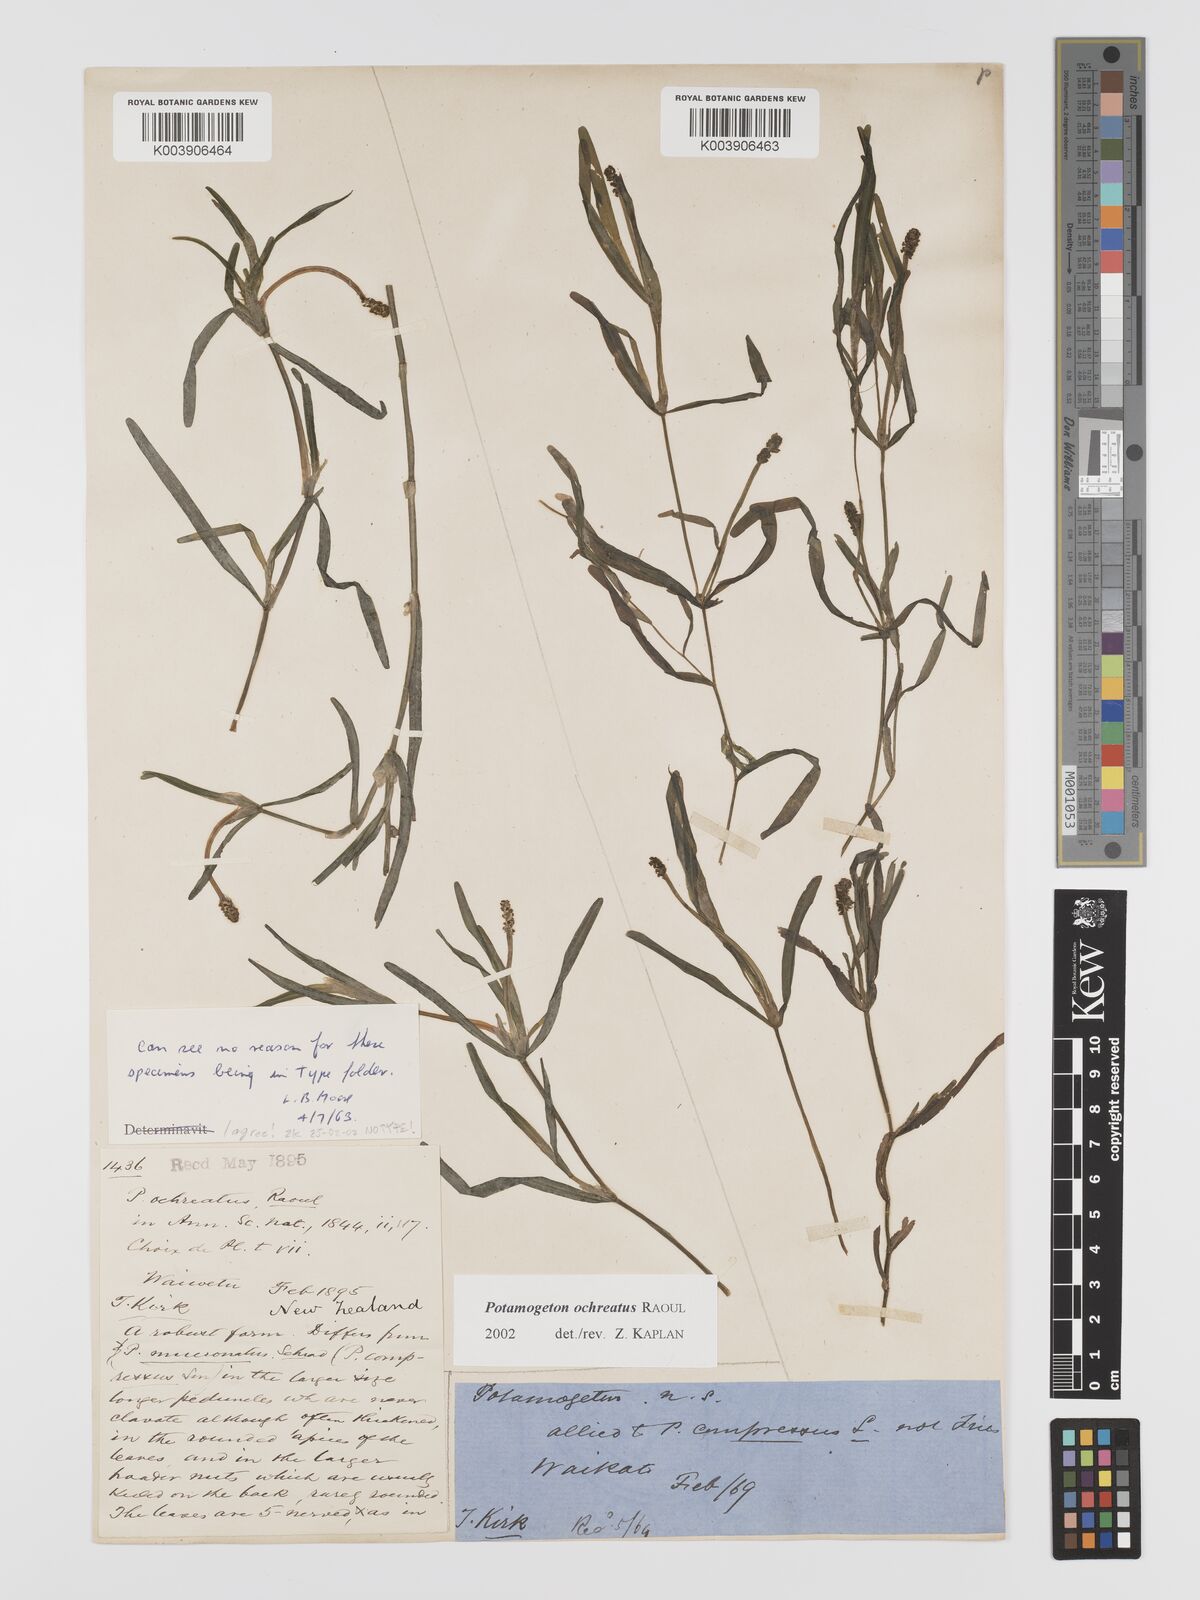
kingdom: Plantae
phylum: Tracheophyta
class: Liliopsida
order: Alismatales
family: Potamogetonaceae
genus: Potamogeton
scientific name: Potamogeton ochreatus
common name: Blunt pondweed
